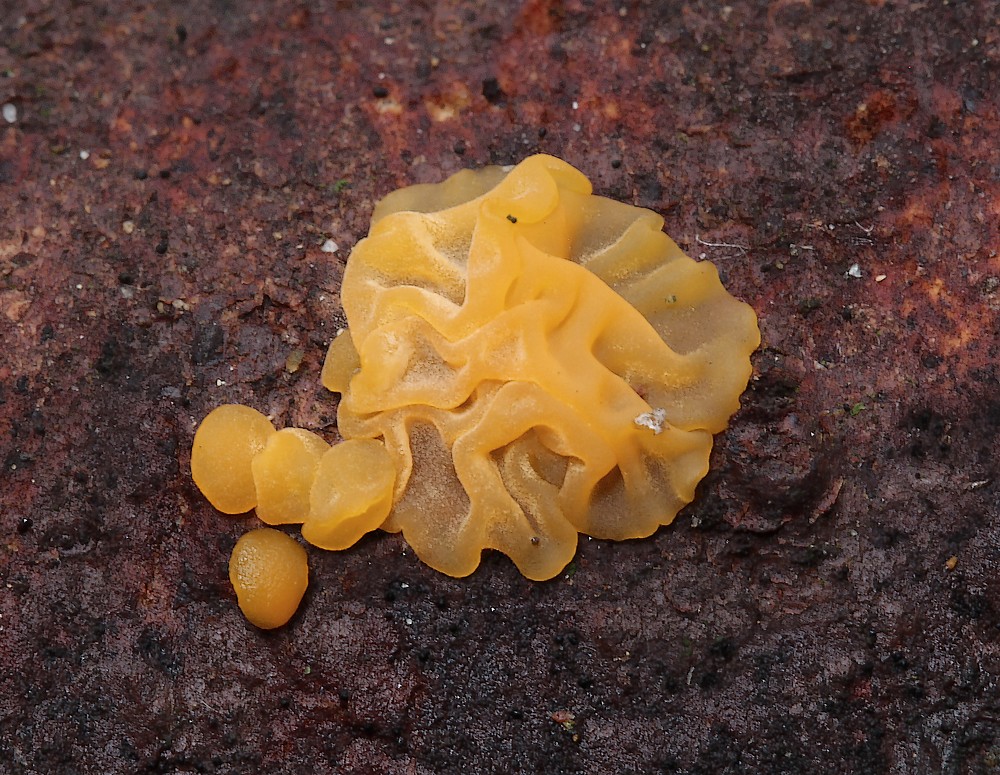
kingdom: Fungi
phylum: Basidiomycota
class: Dacrymycetes
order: Dacrymycetales
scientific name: Dacrymycetales
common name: tåresvampordenen
